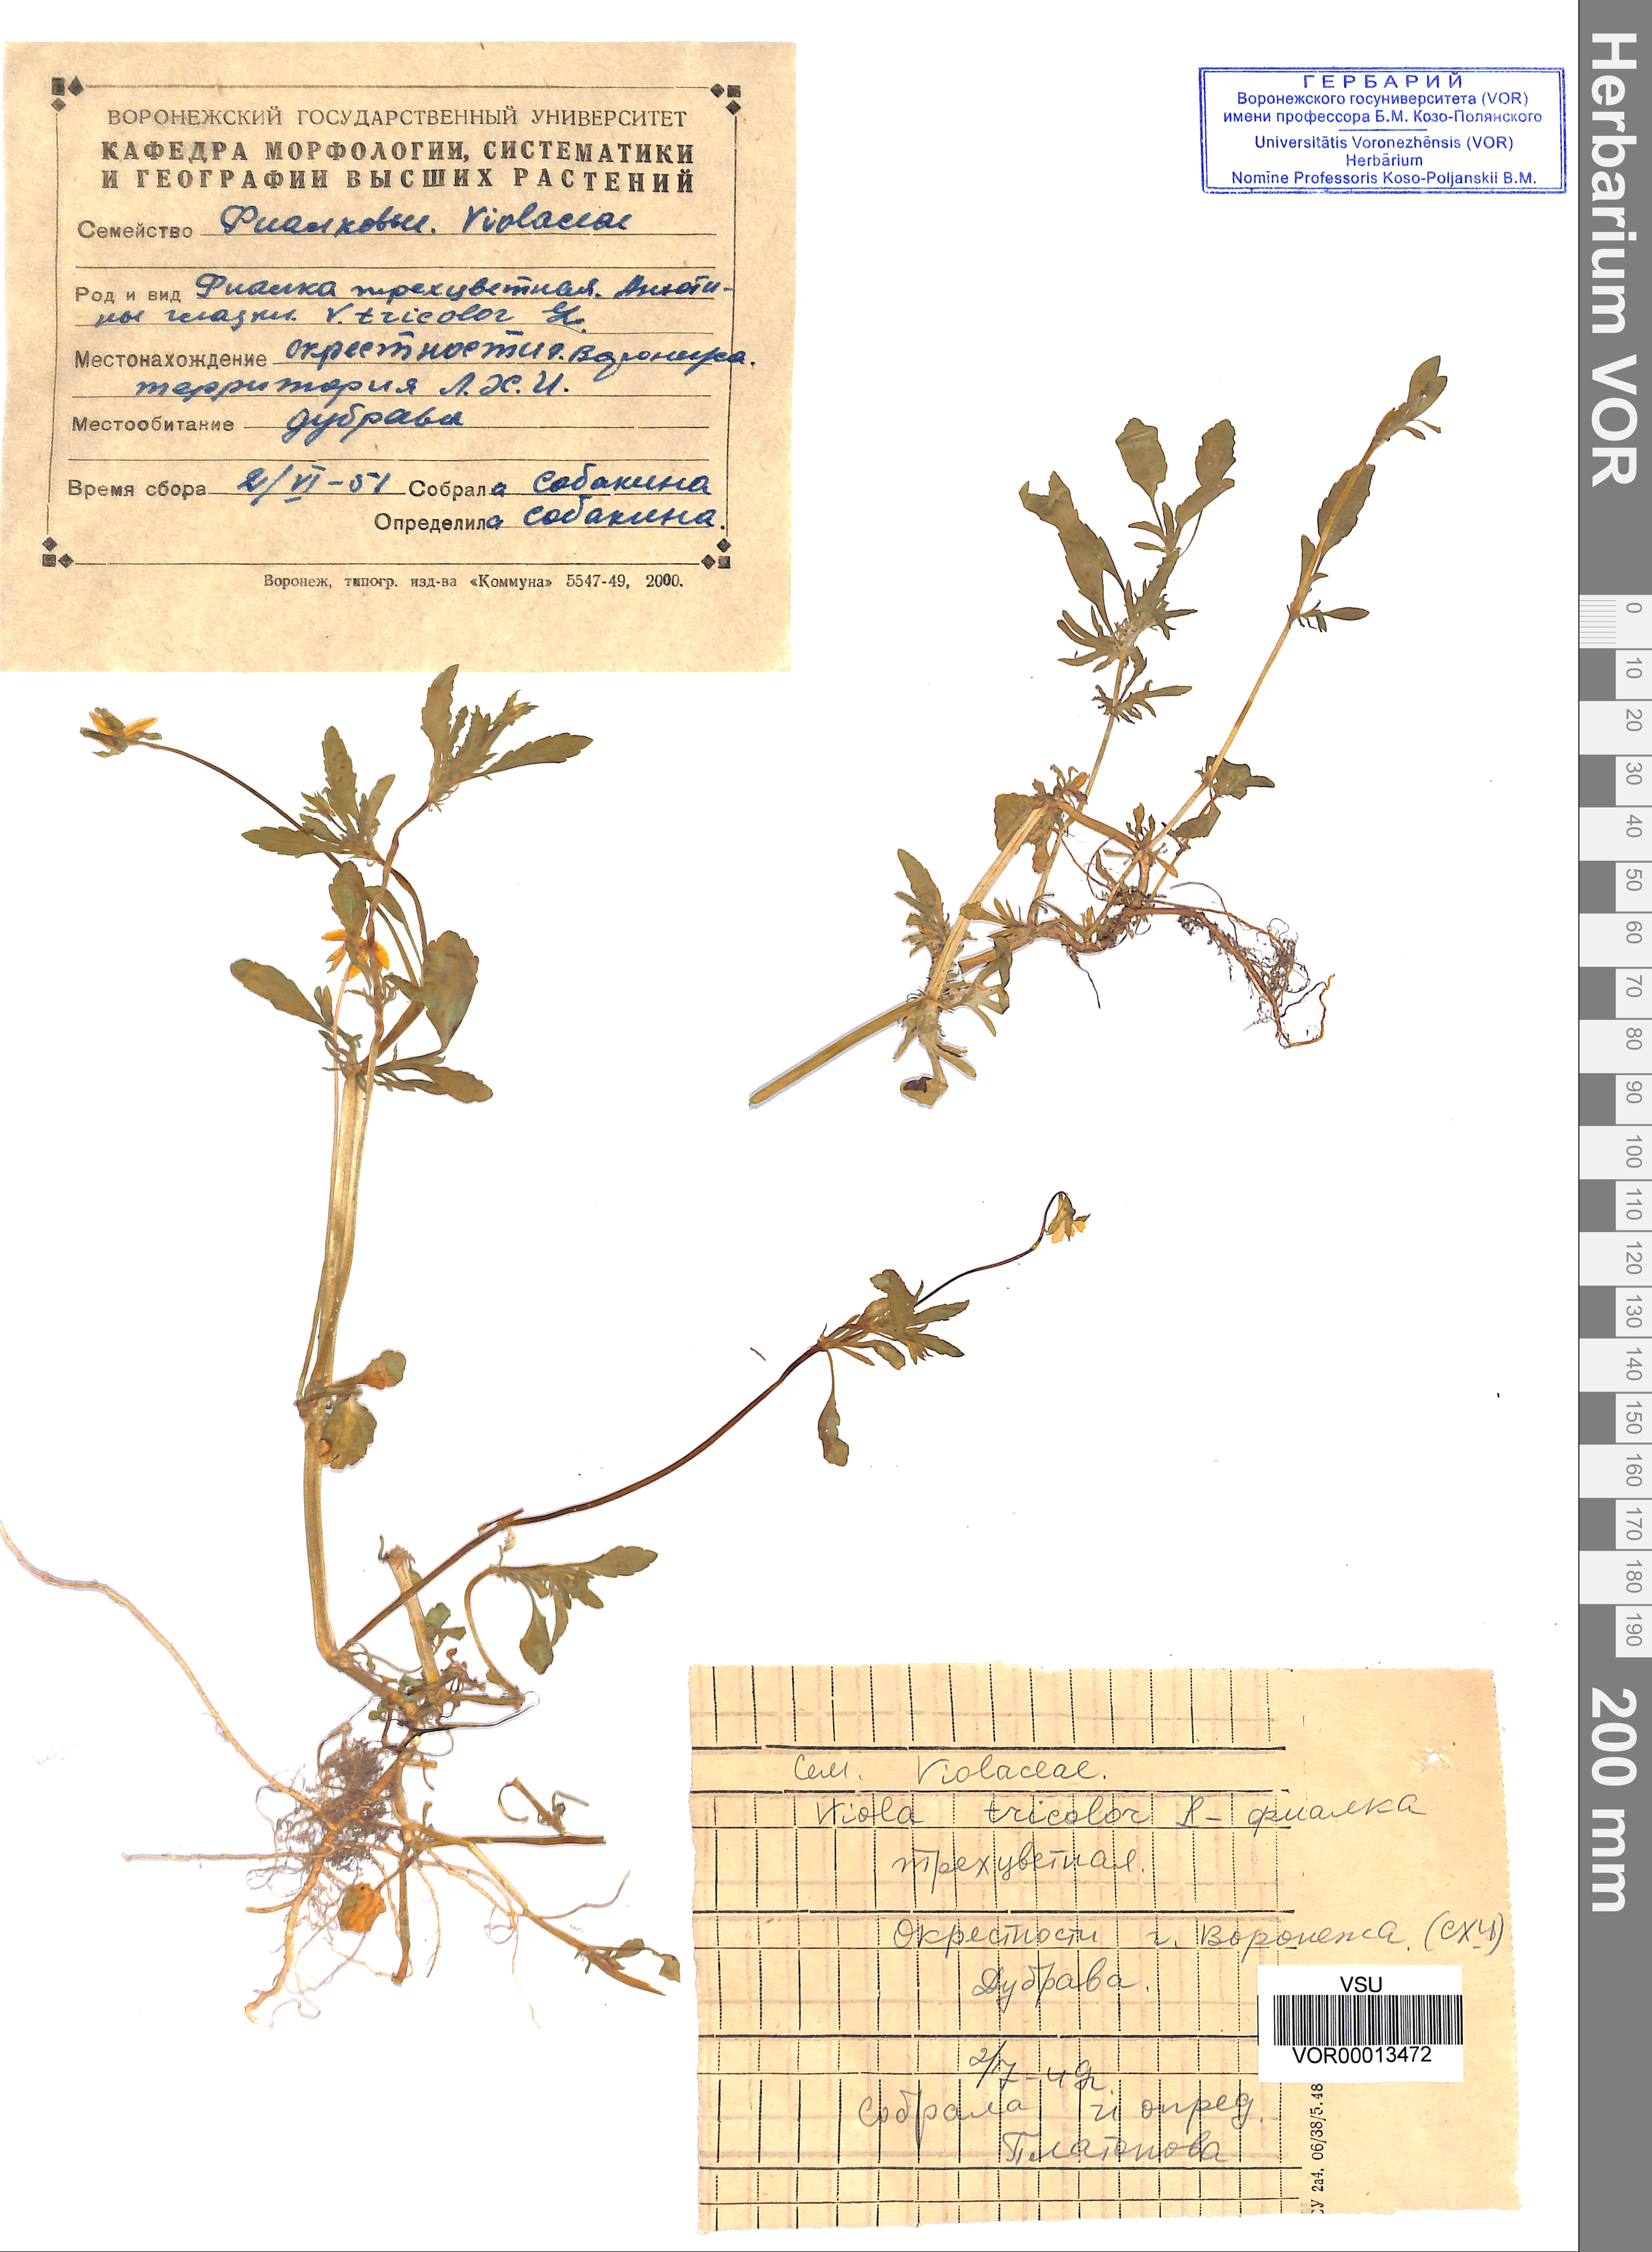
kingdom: Plantae
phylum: Tracheophyta
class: Magnoliopsida
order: Malpighiales
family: Violaceae
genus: Viola
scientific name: Viola tricolor
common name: Pansy
